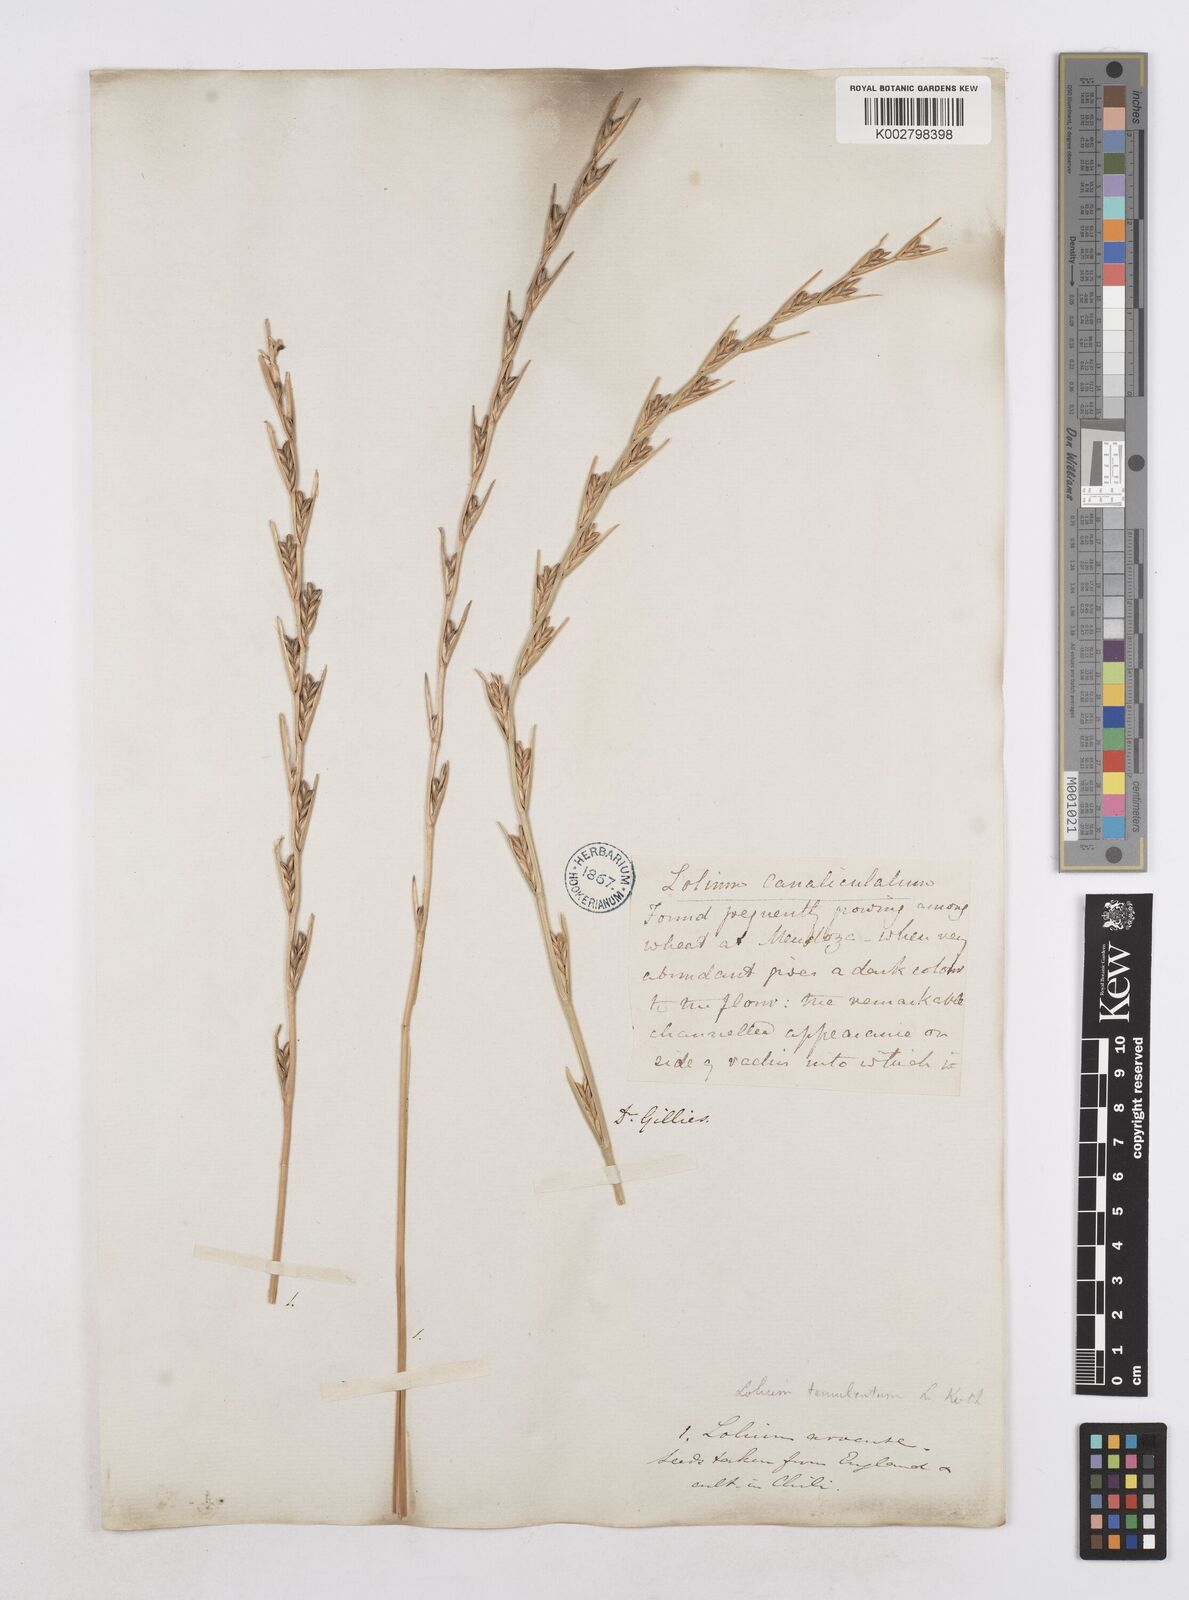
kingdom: Plantae
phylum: Tracheophyta
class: Liliopsida
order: Poales
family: Poaceae
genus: Lolium
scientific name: Lolium temulentum
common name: Darnel
